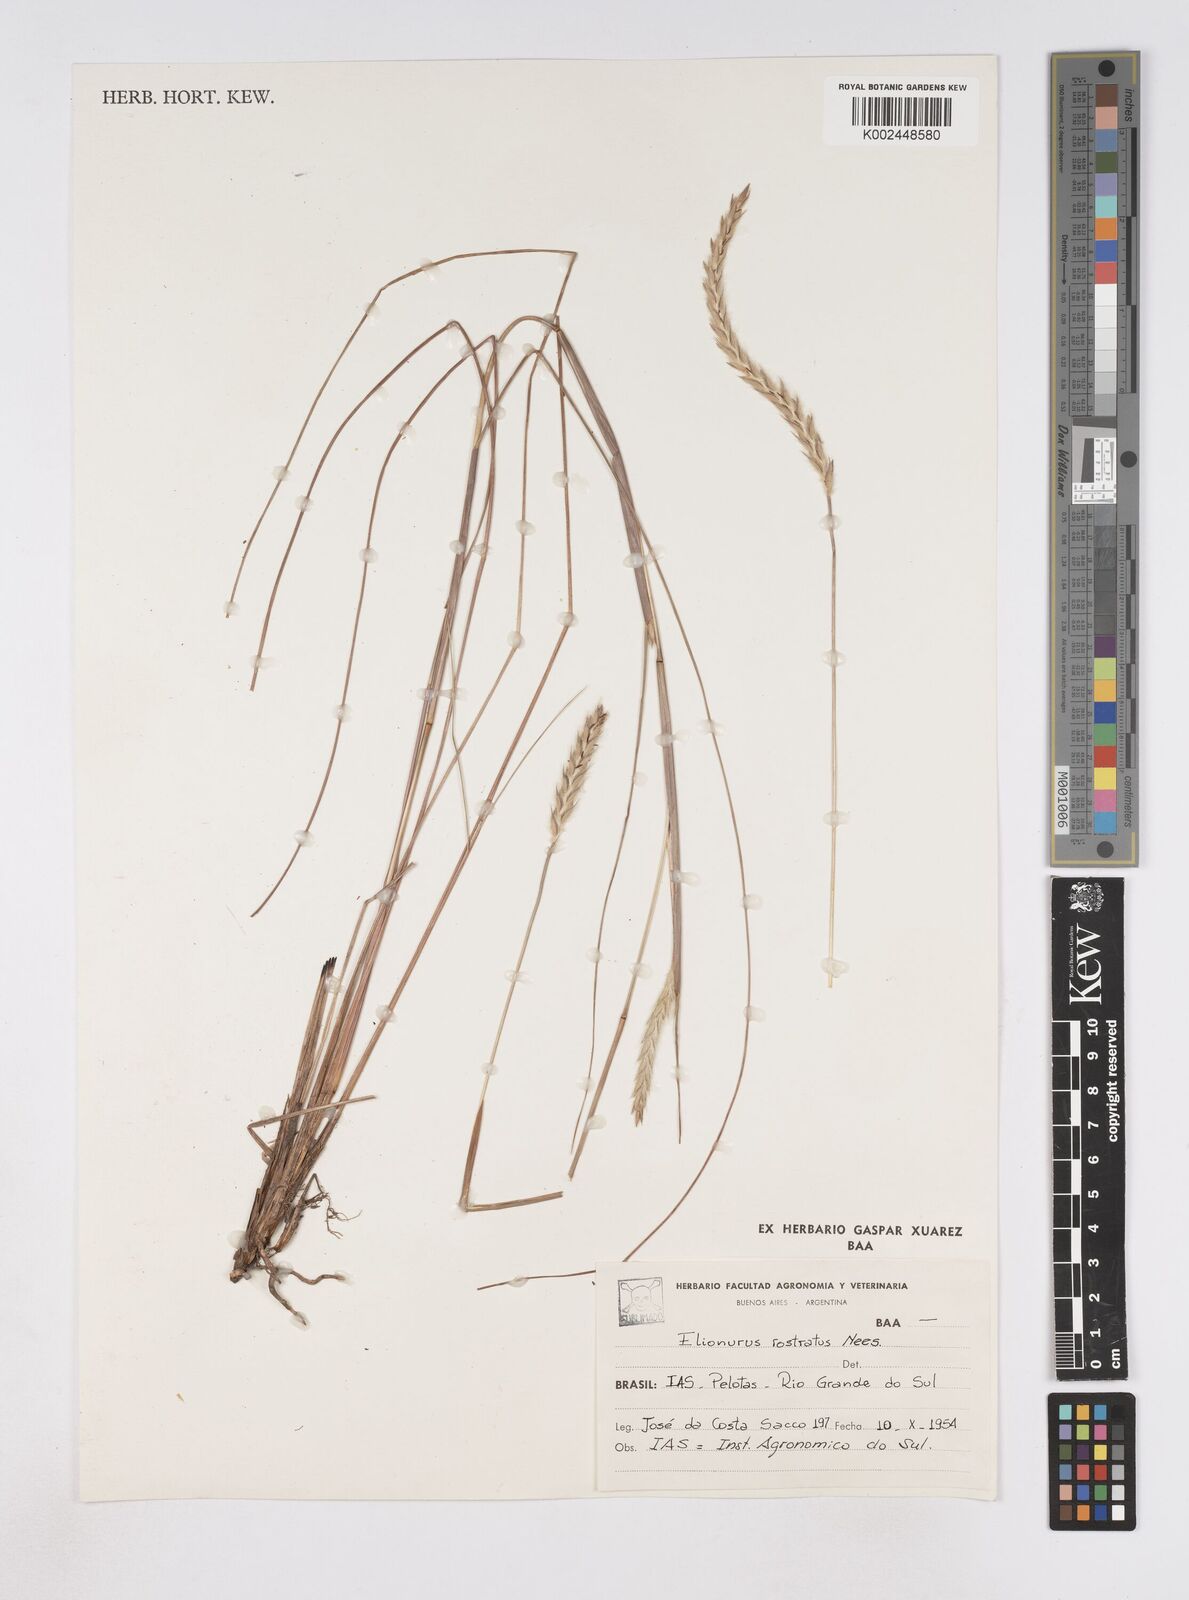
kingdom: Plantae
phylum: Tracheophyta
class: Liliopsida
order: Poales
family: Poaceae
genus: Elionurus
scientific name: Elionurus muticus
